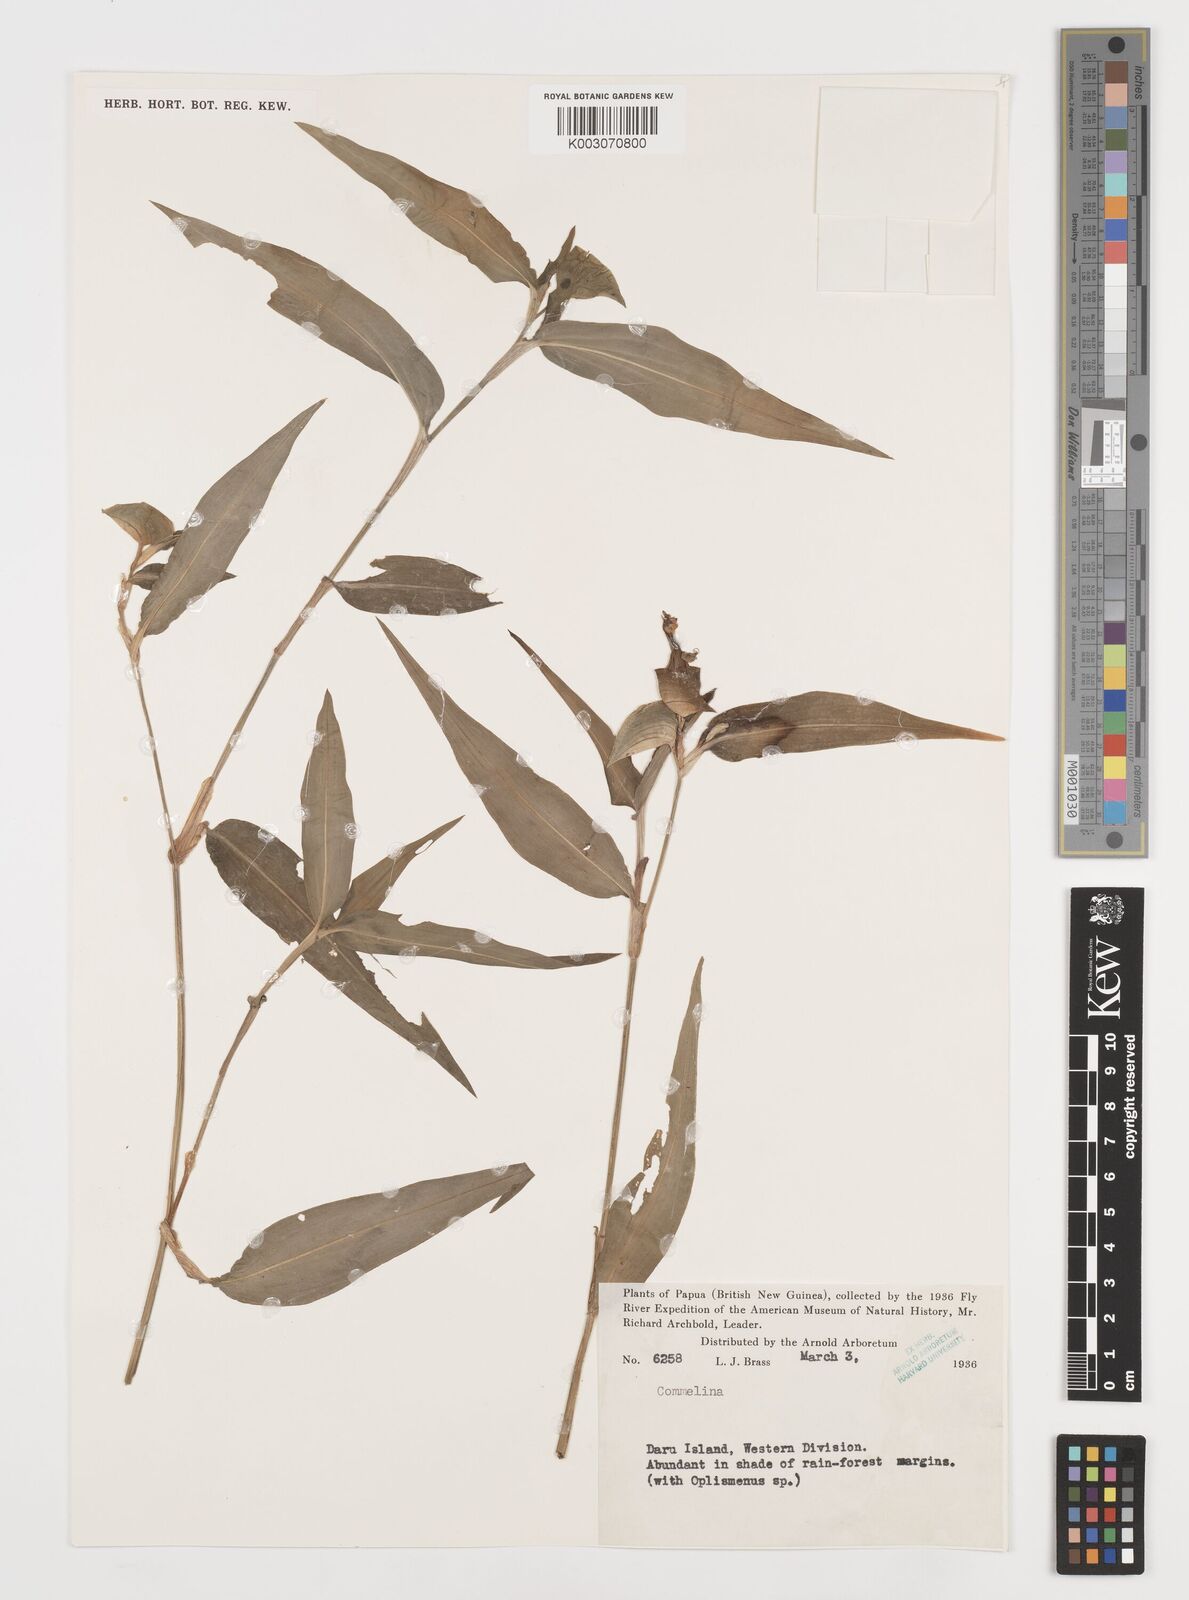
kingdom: Plantae
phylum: Tracheophyta
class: Liliopsida
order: Commelinales
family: Commelinaceae
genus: Commelina
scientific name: Commelina
